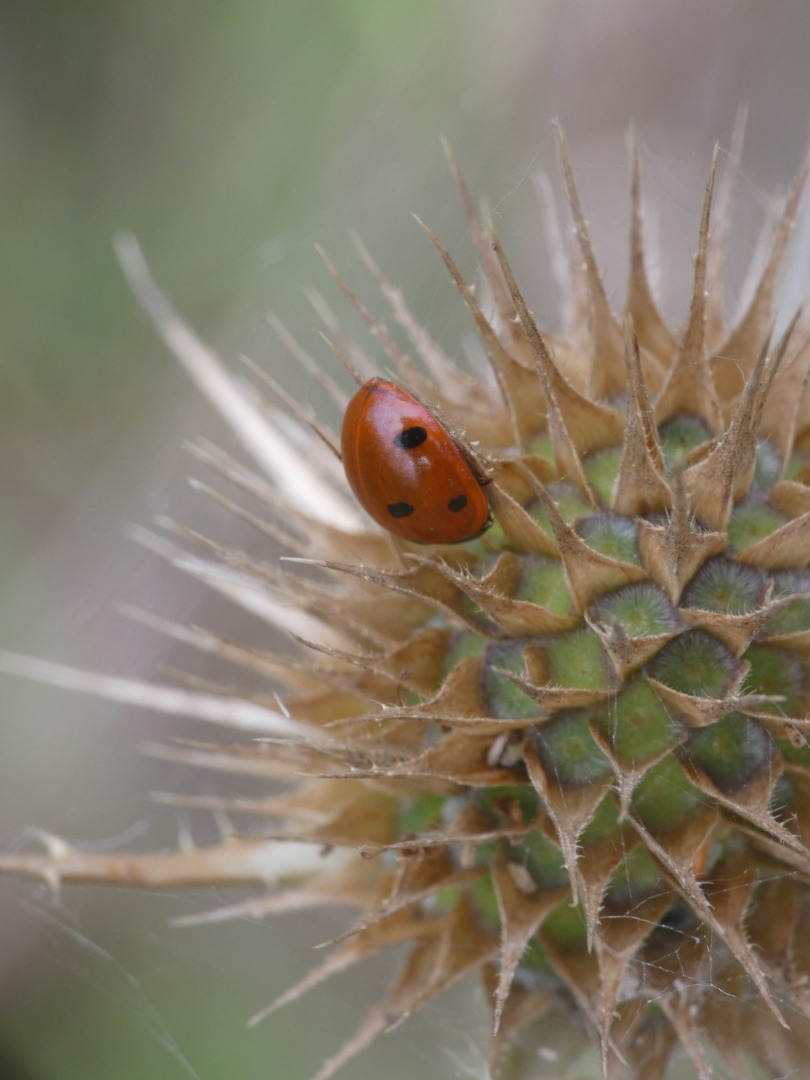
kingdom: Animalia
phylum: Arthropoda
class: Insecta
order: Coleoptera
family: Coccinellidae
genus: Coccinella
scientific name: Coccinella septempunctata
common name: Syvplettet mariehøne
